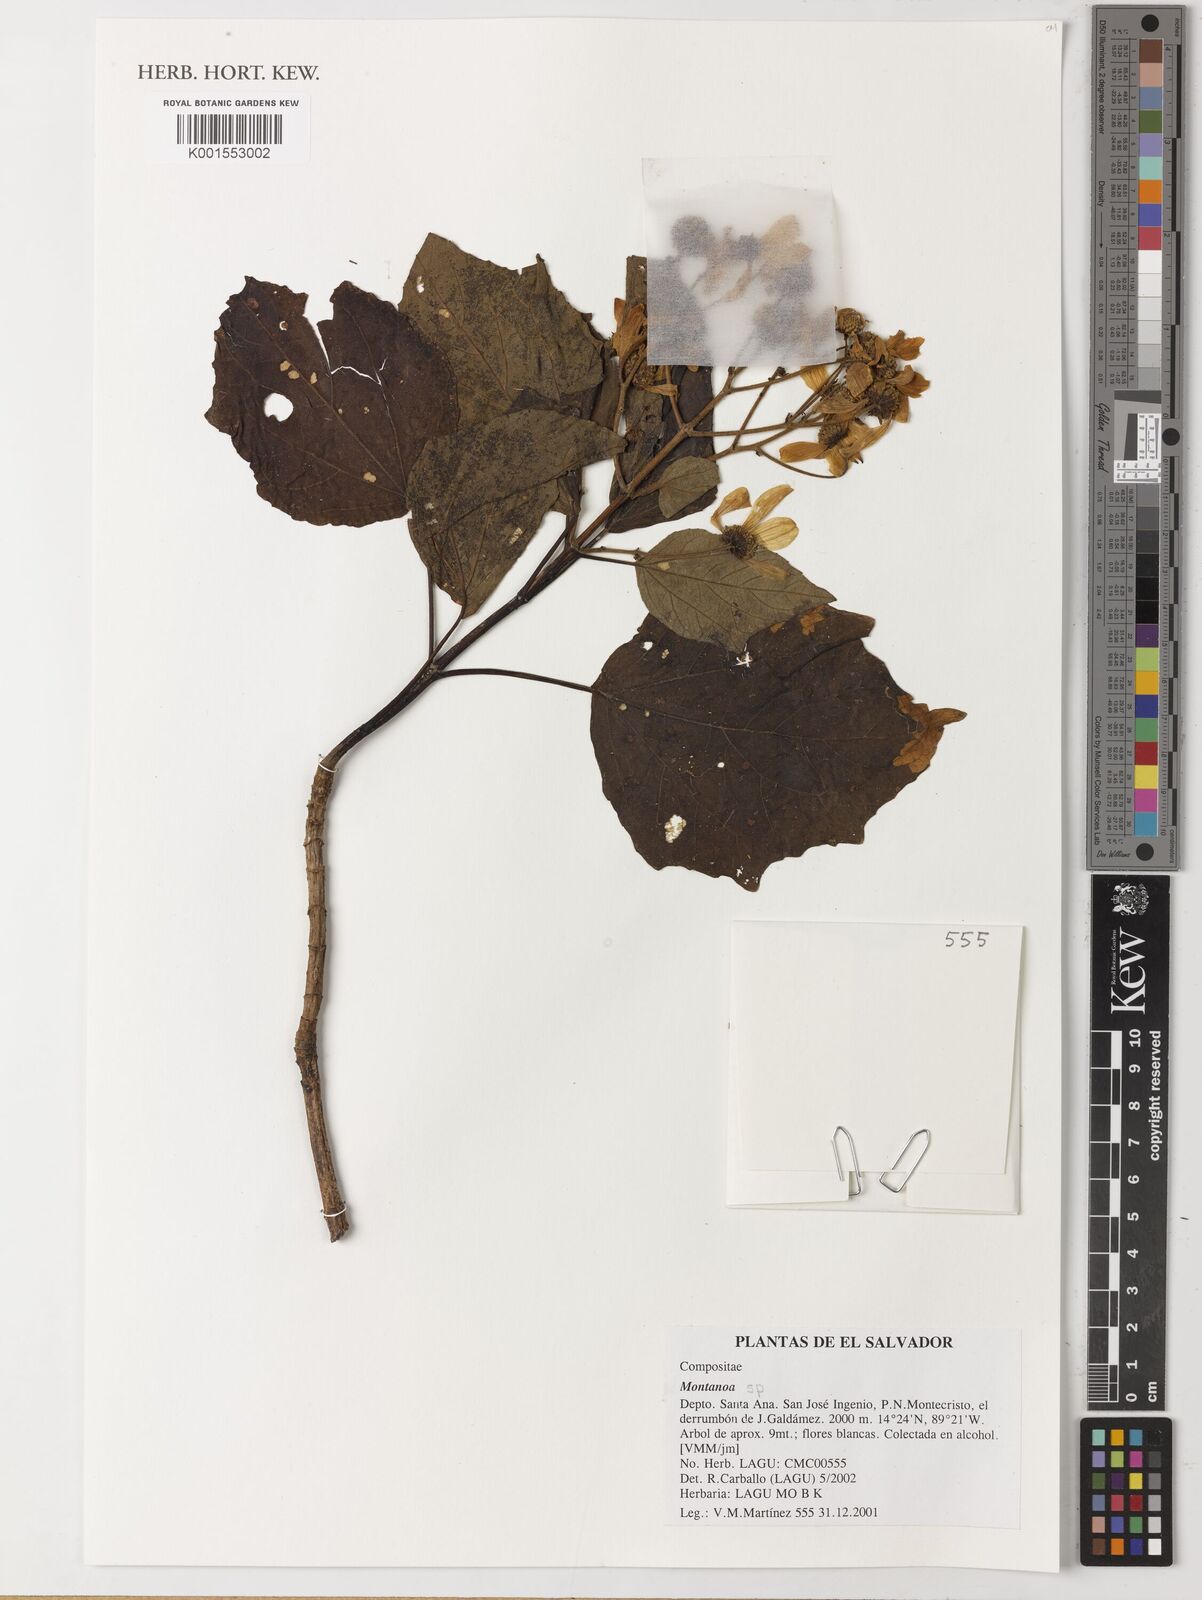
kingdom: Plantae
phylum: Tracheophyta
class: Magnoliopsida
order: Asterales
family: Asteraceae
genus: Montanoa
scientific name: Montanoa
